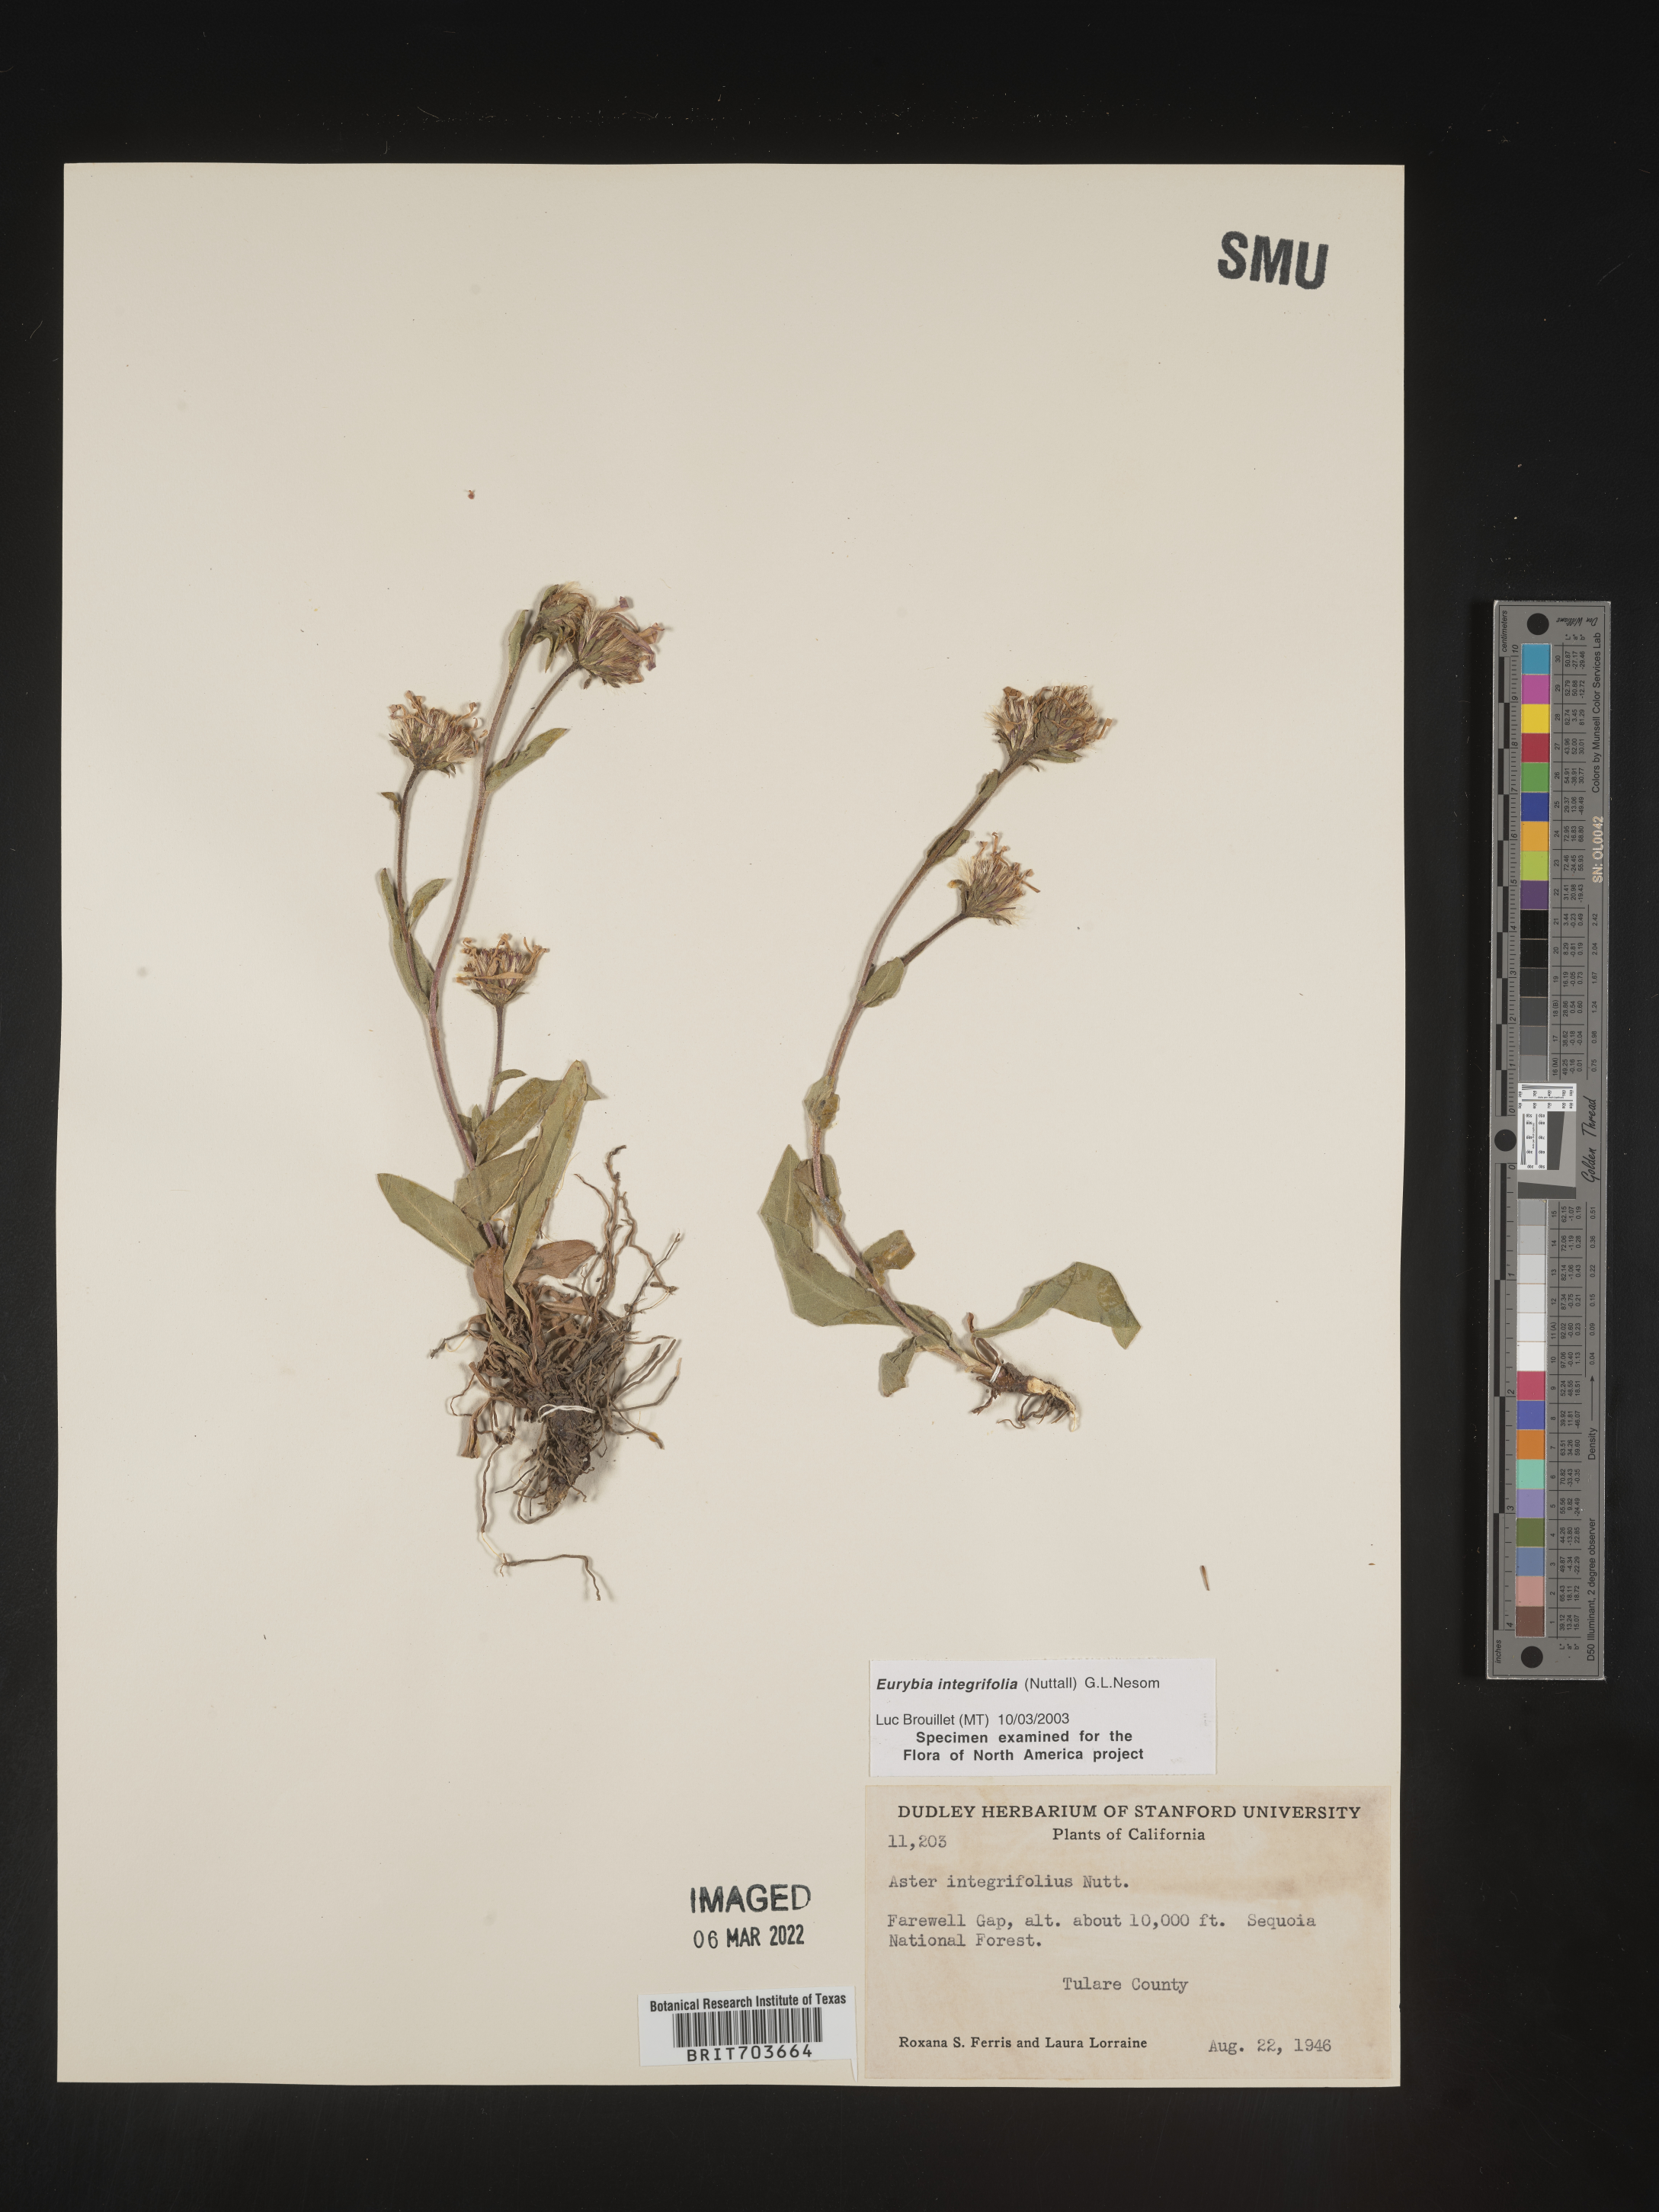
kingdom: Plantae
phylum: Tracheophyta
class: Magnoliopsida
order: Asterales
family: Asteraceae
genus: Eurybia
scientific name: Eurybia integrifolia
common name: Thick-stem aster
